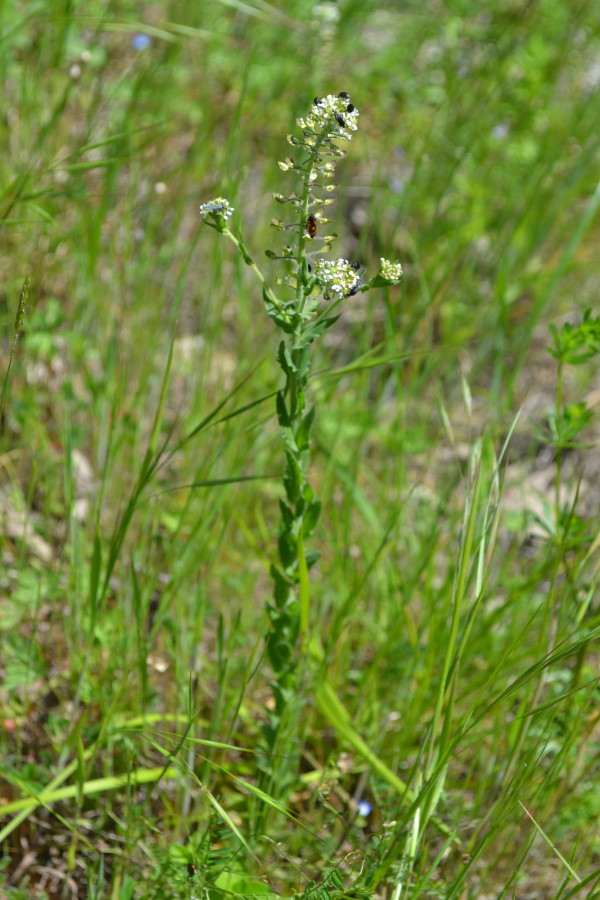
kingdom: Plantae
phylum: Tracheophyta
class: Magnoliopsida
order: Brassicales
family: Brassicaceae
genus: Lepidium
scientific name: Lepidium campestre
